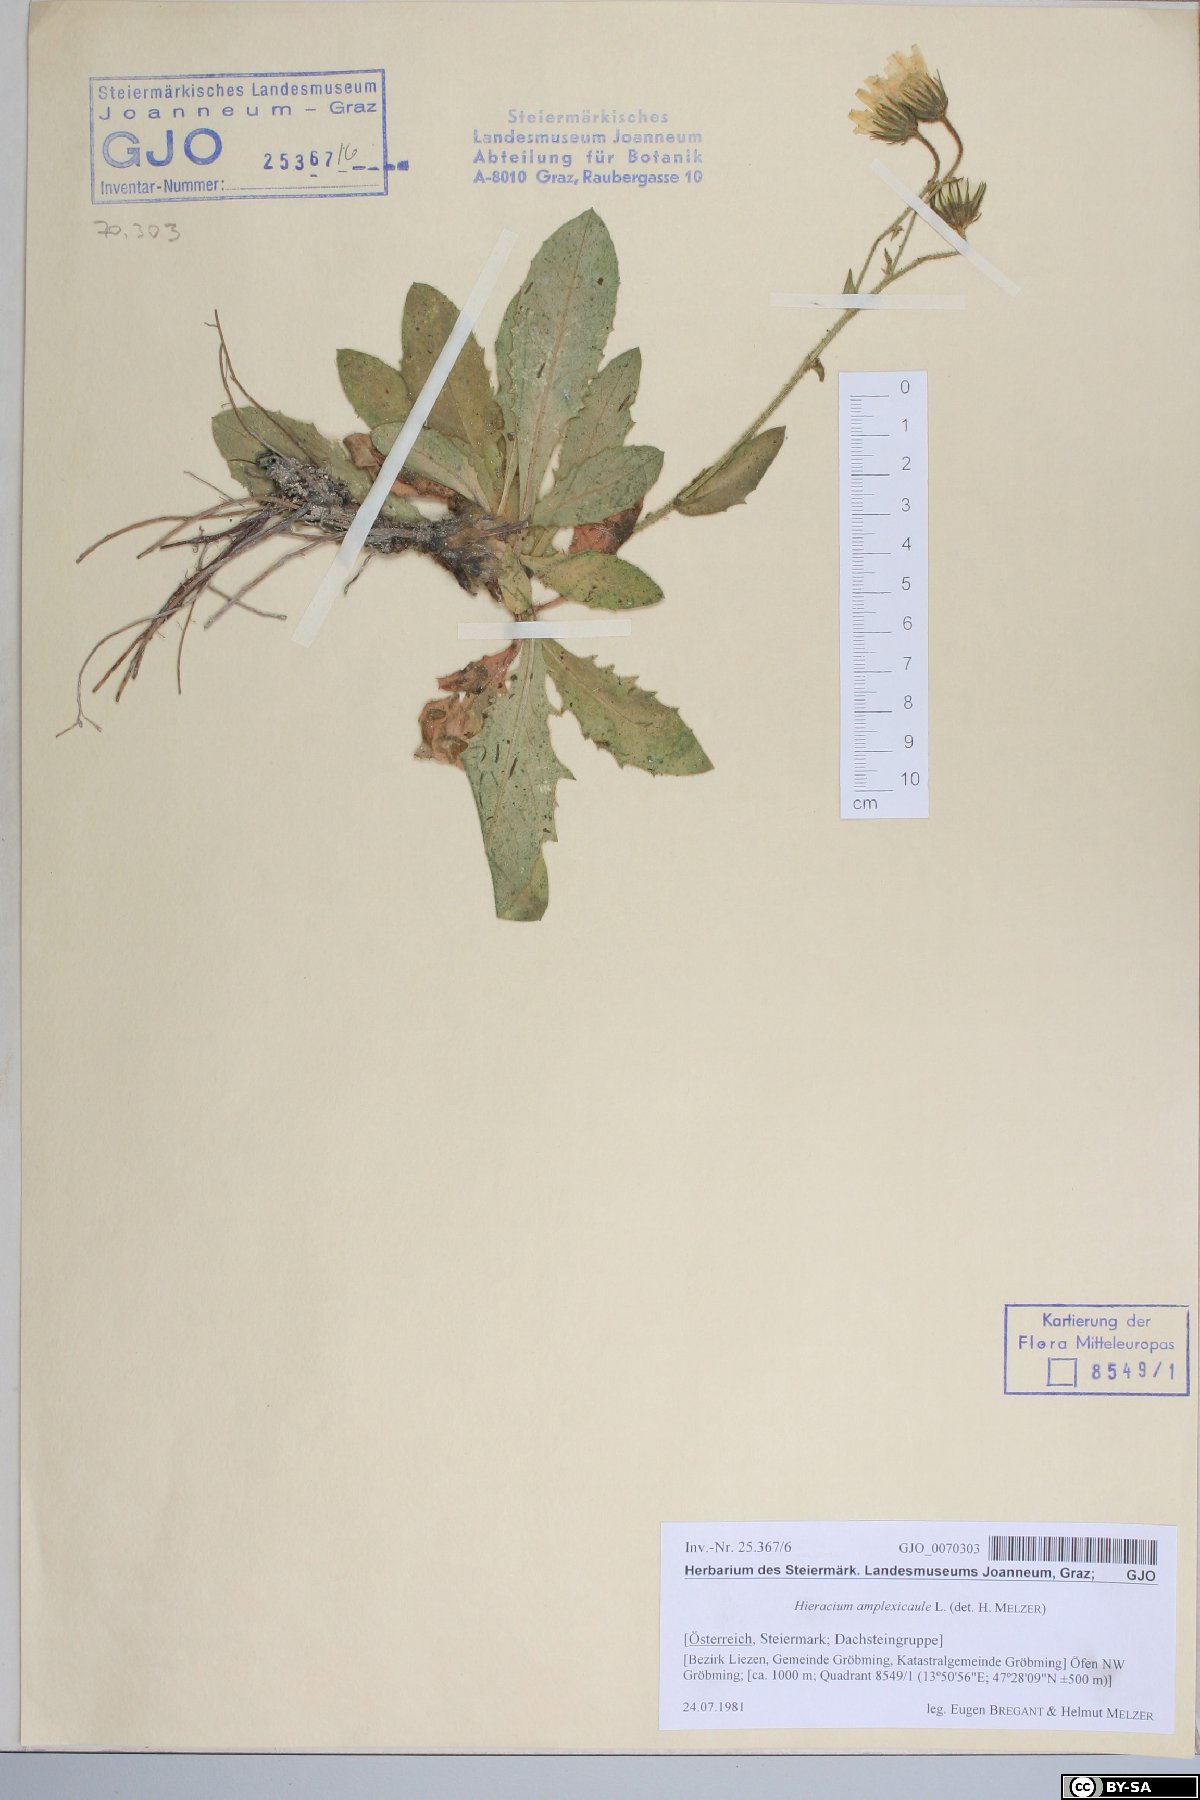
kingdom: Plantae
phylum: Tracheophyta
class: Magnoliopsida
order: Asterales
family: Asteraceae
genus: Hieracium
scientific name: Hieracium amplexicaule
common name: Sticky hawkweed
